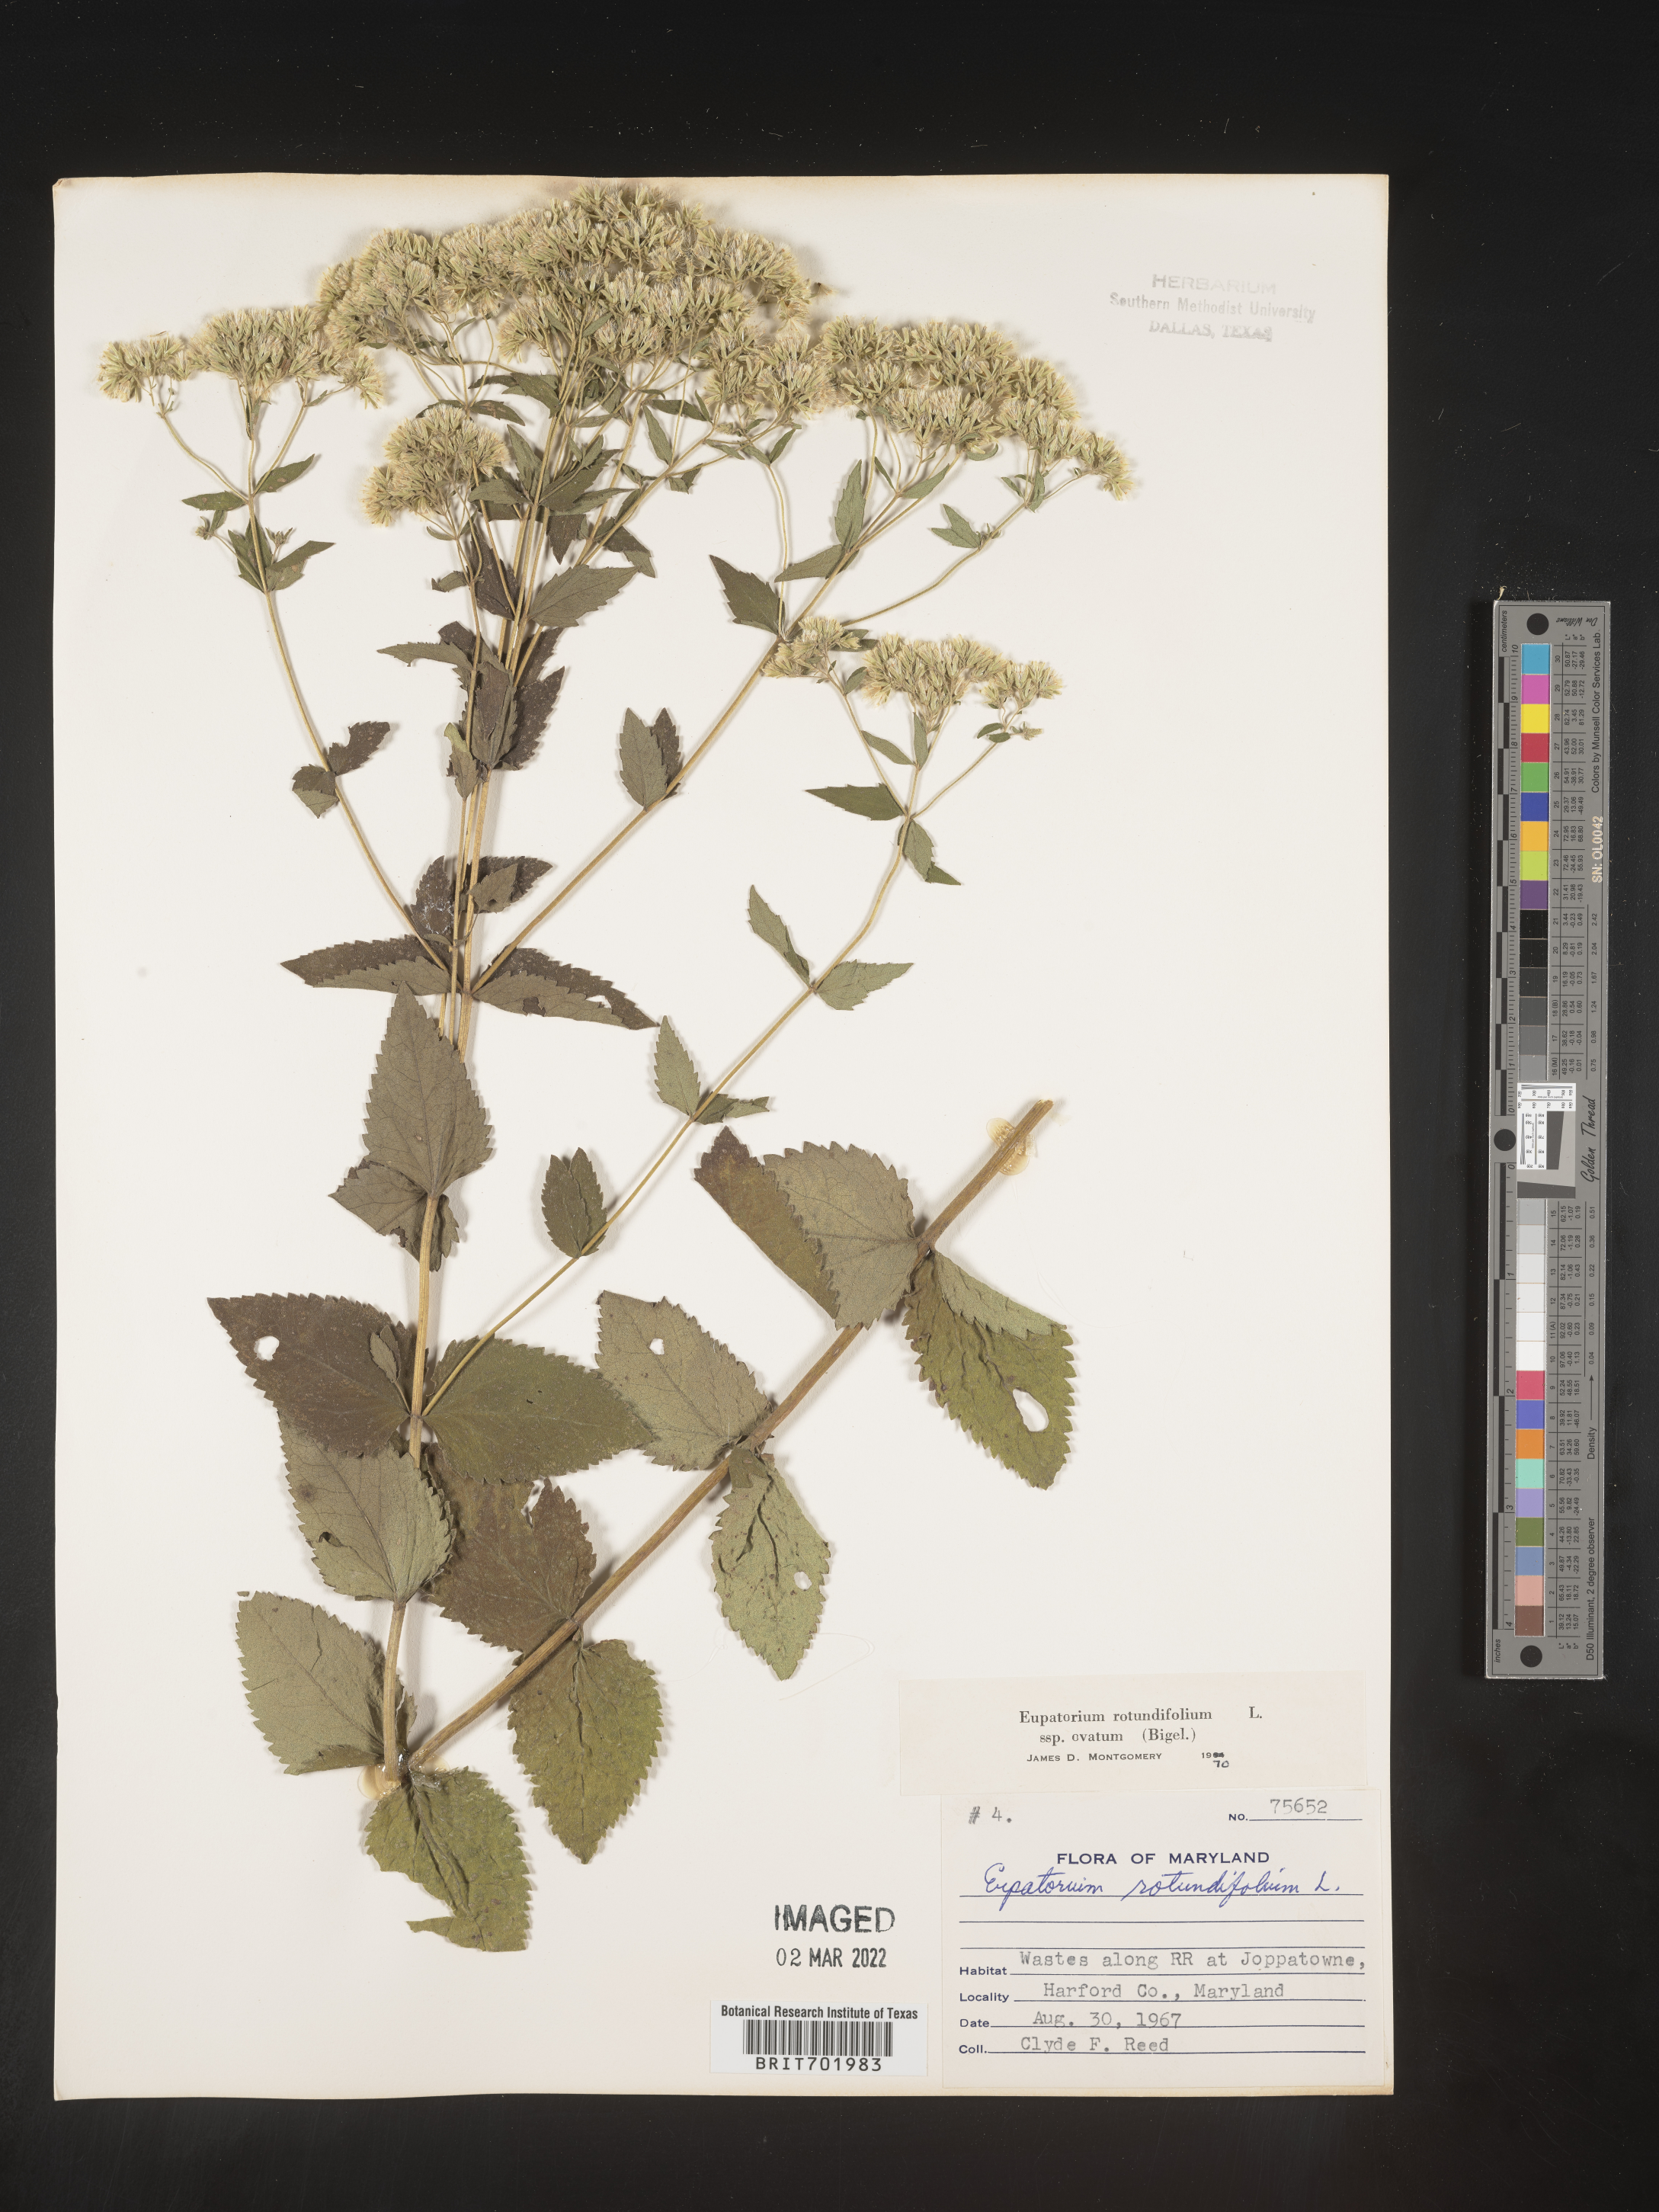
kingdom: Plantae
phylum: Tracheophyta
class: Magnoliopsida
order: Asterales
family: Asteraceae
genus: Eupatorium
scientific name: Eupatorium rotundifolium
